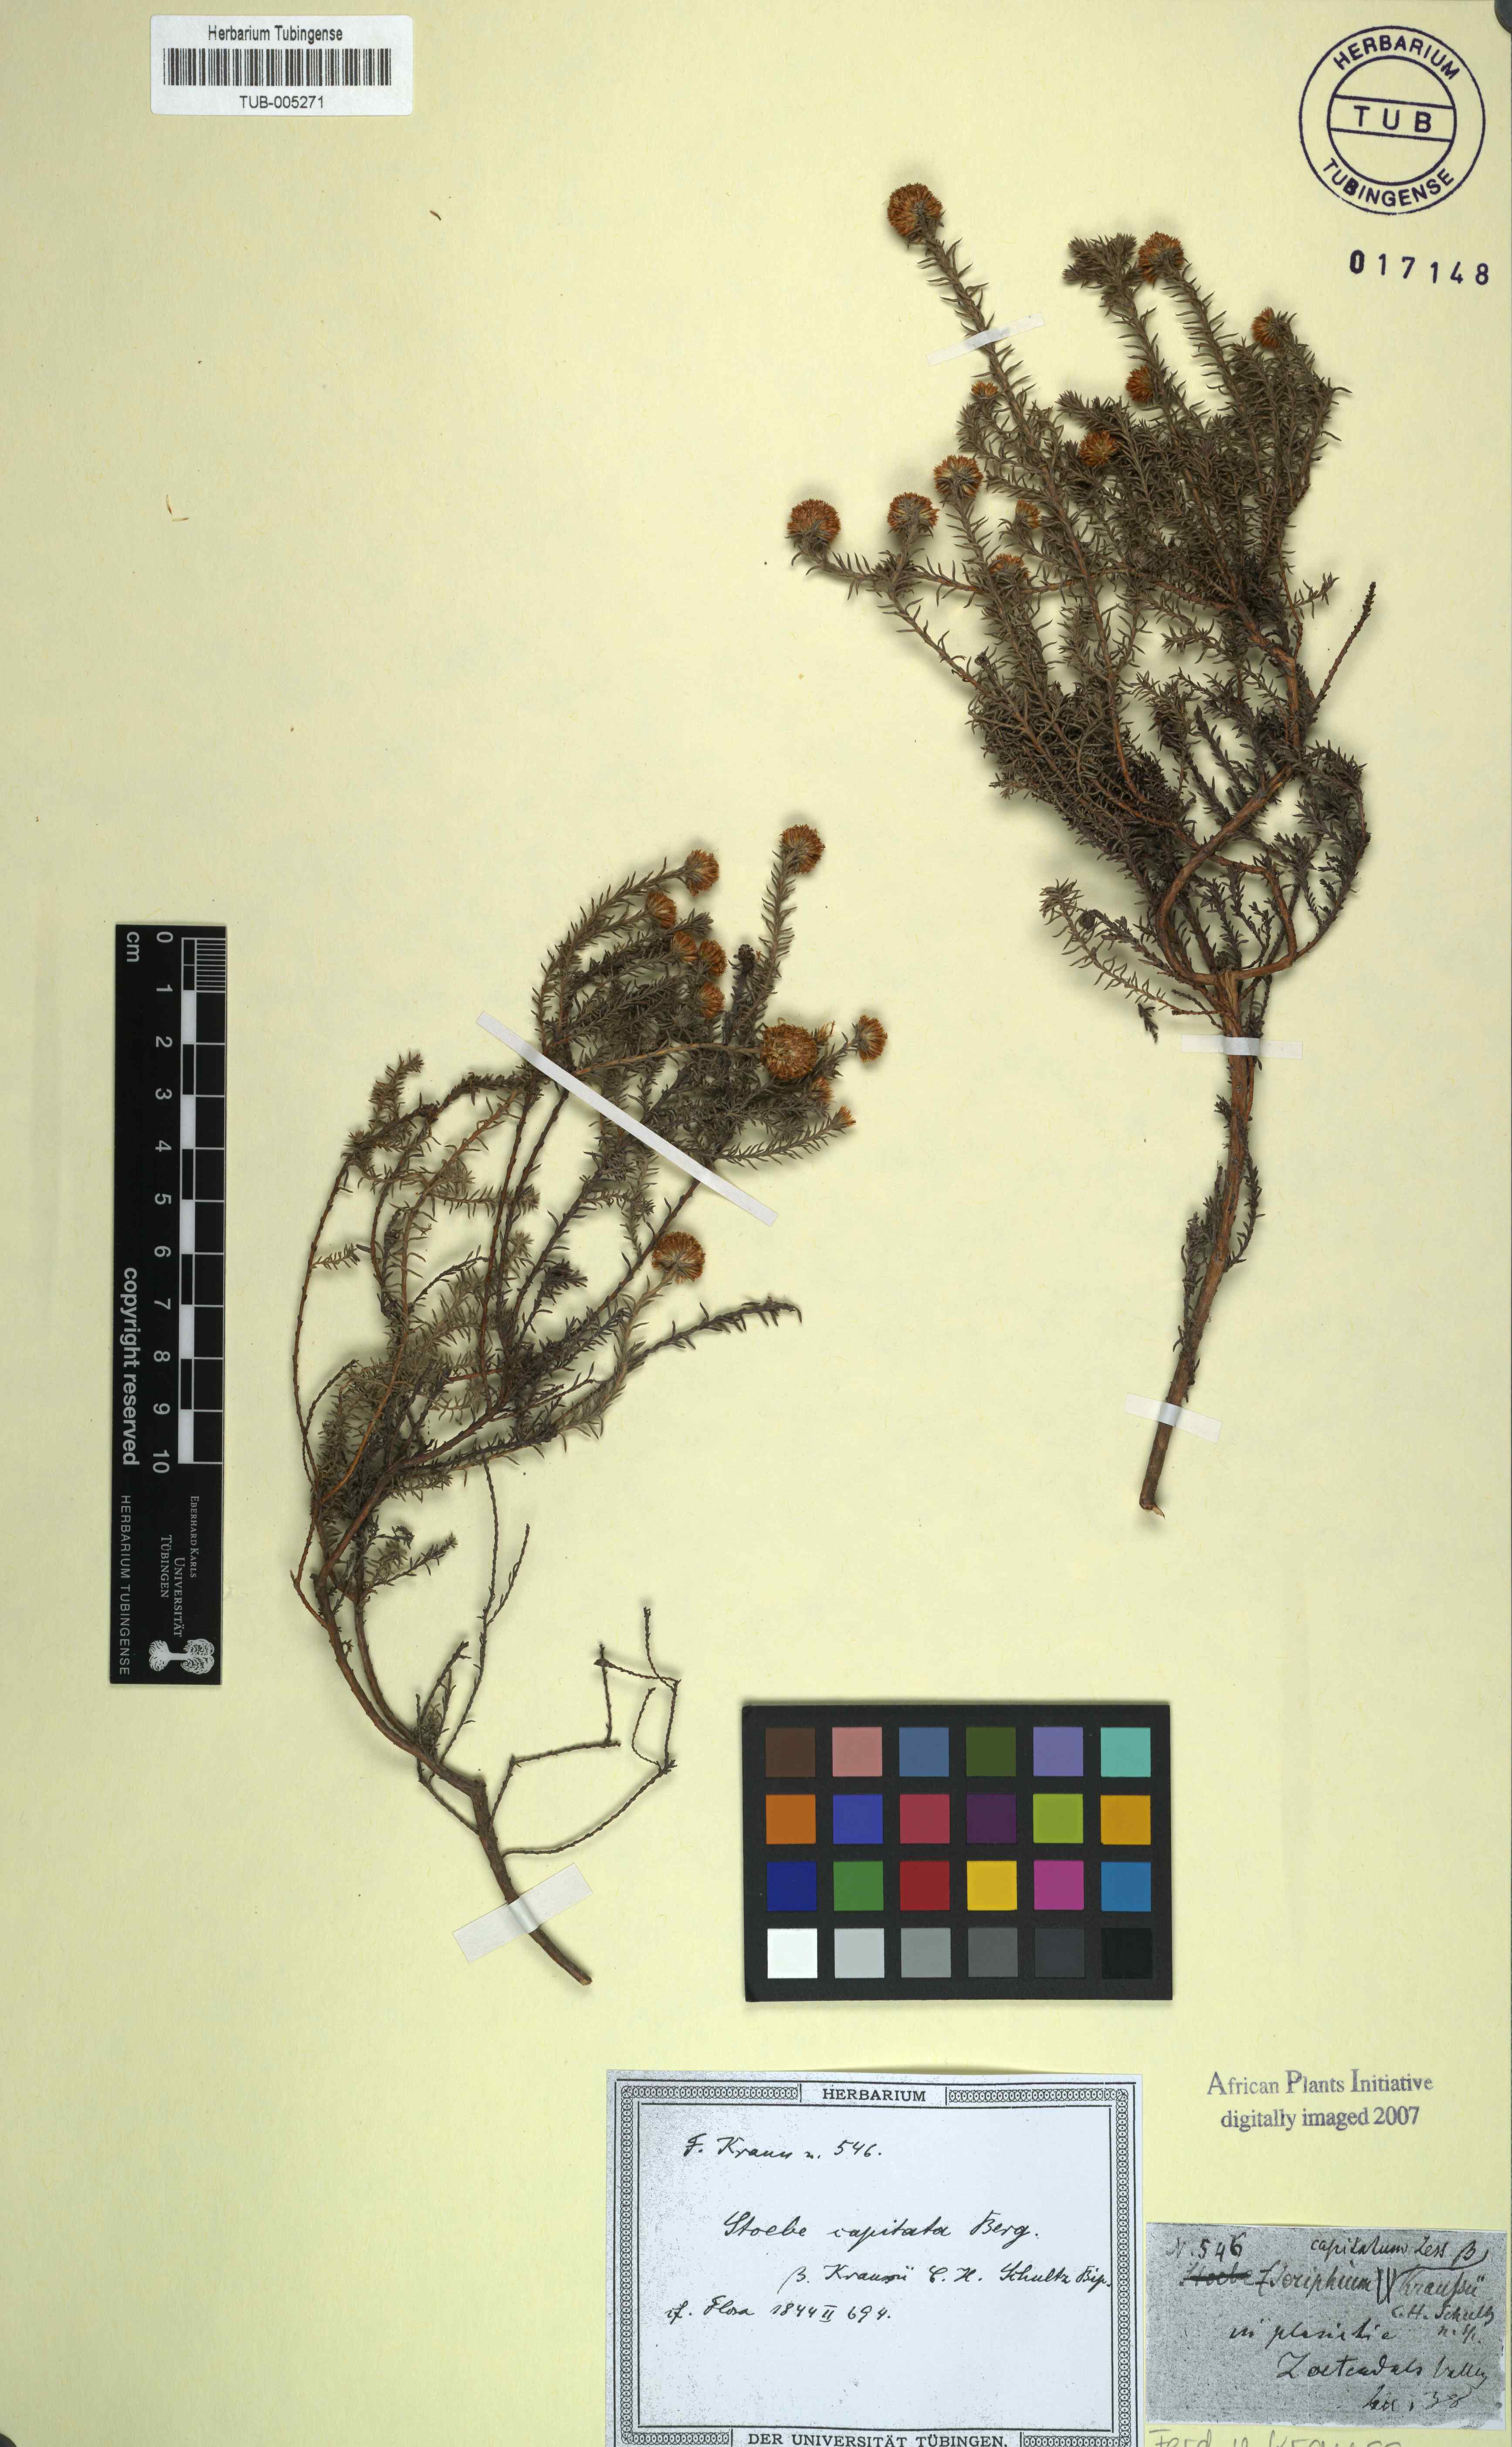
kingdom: Plantae
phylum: Tracheophyta
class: Magnoliopsida
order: Asterales
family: Asteraceae
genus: Stoebe
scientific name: Stoebe capitata
